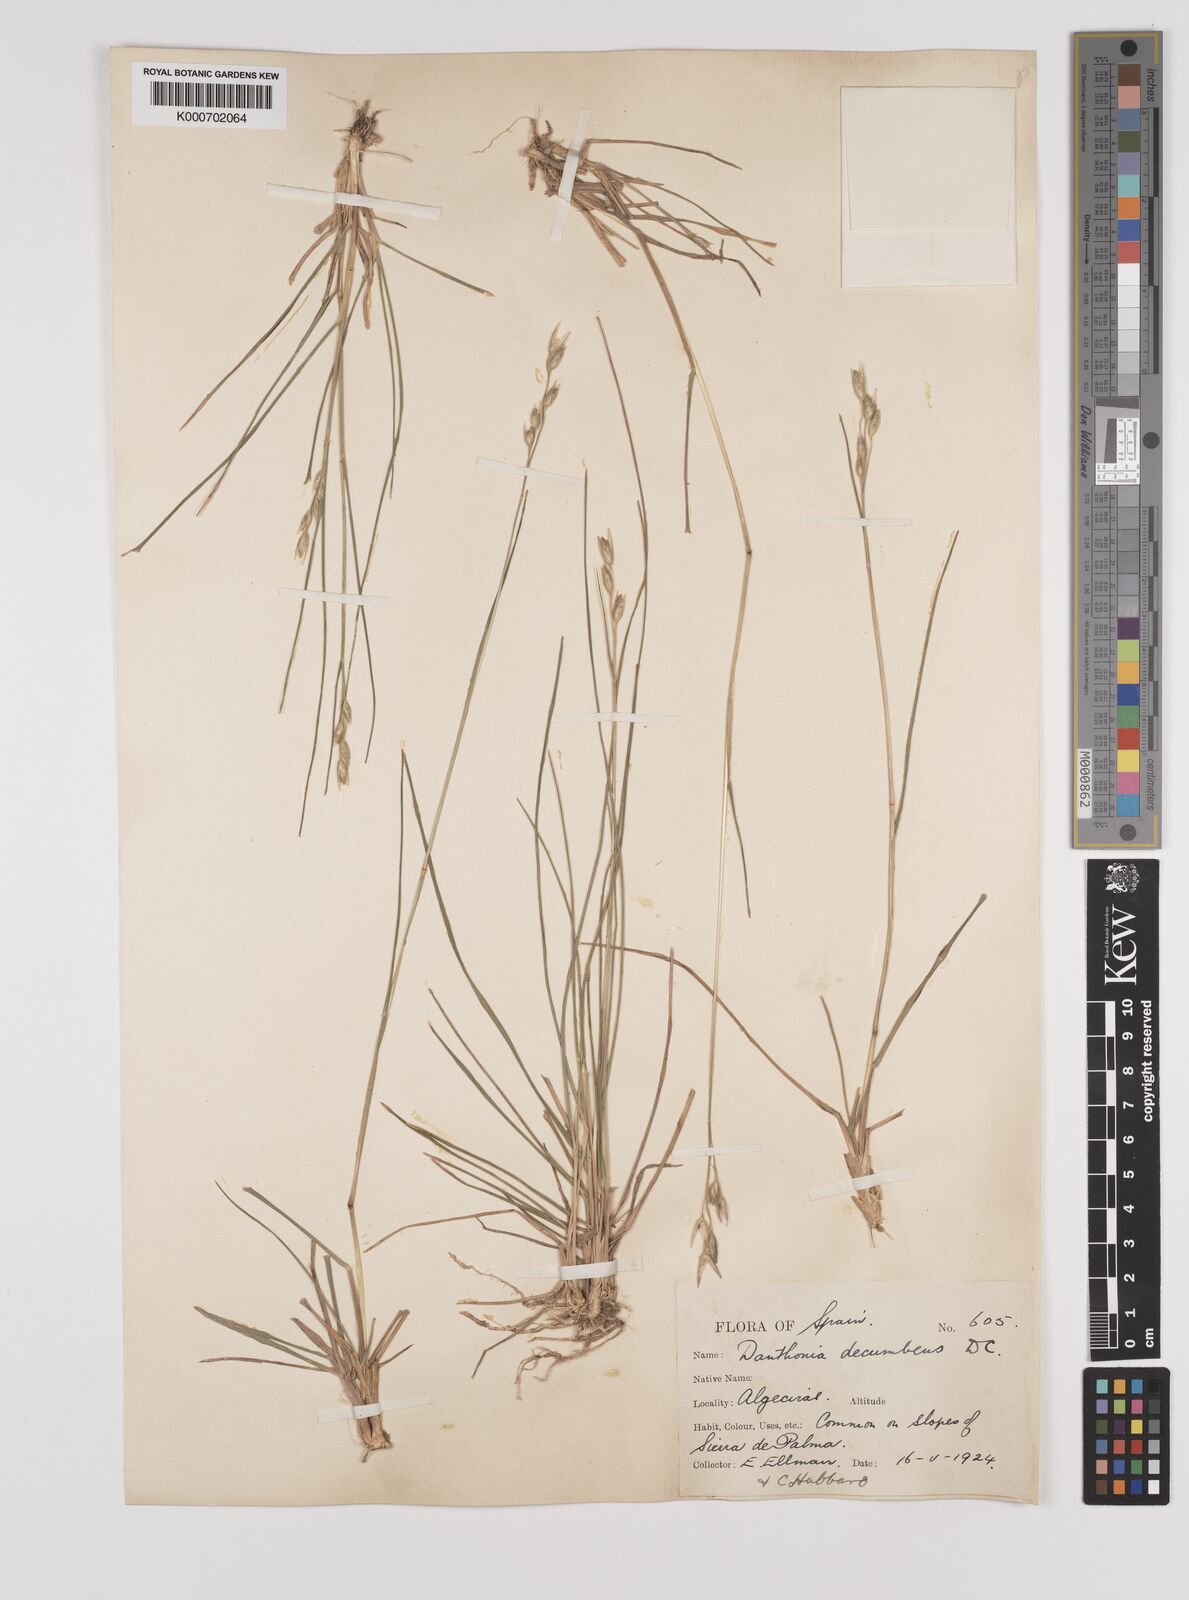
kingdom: Plantae
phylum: Tracheophyta
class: Liliopsida
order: Poales
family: Poaceae
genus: Danthonia
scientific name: Danthonia decumbens
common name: Common heathgrass
